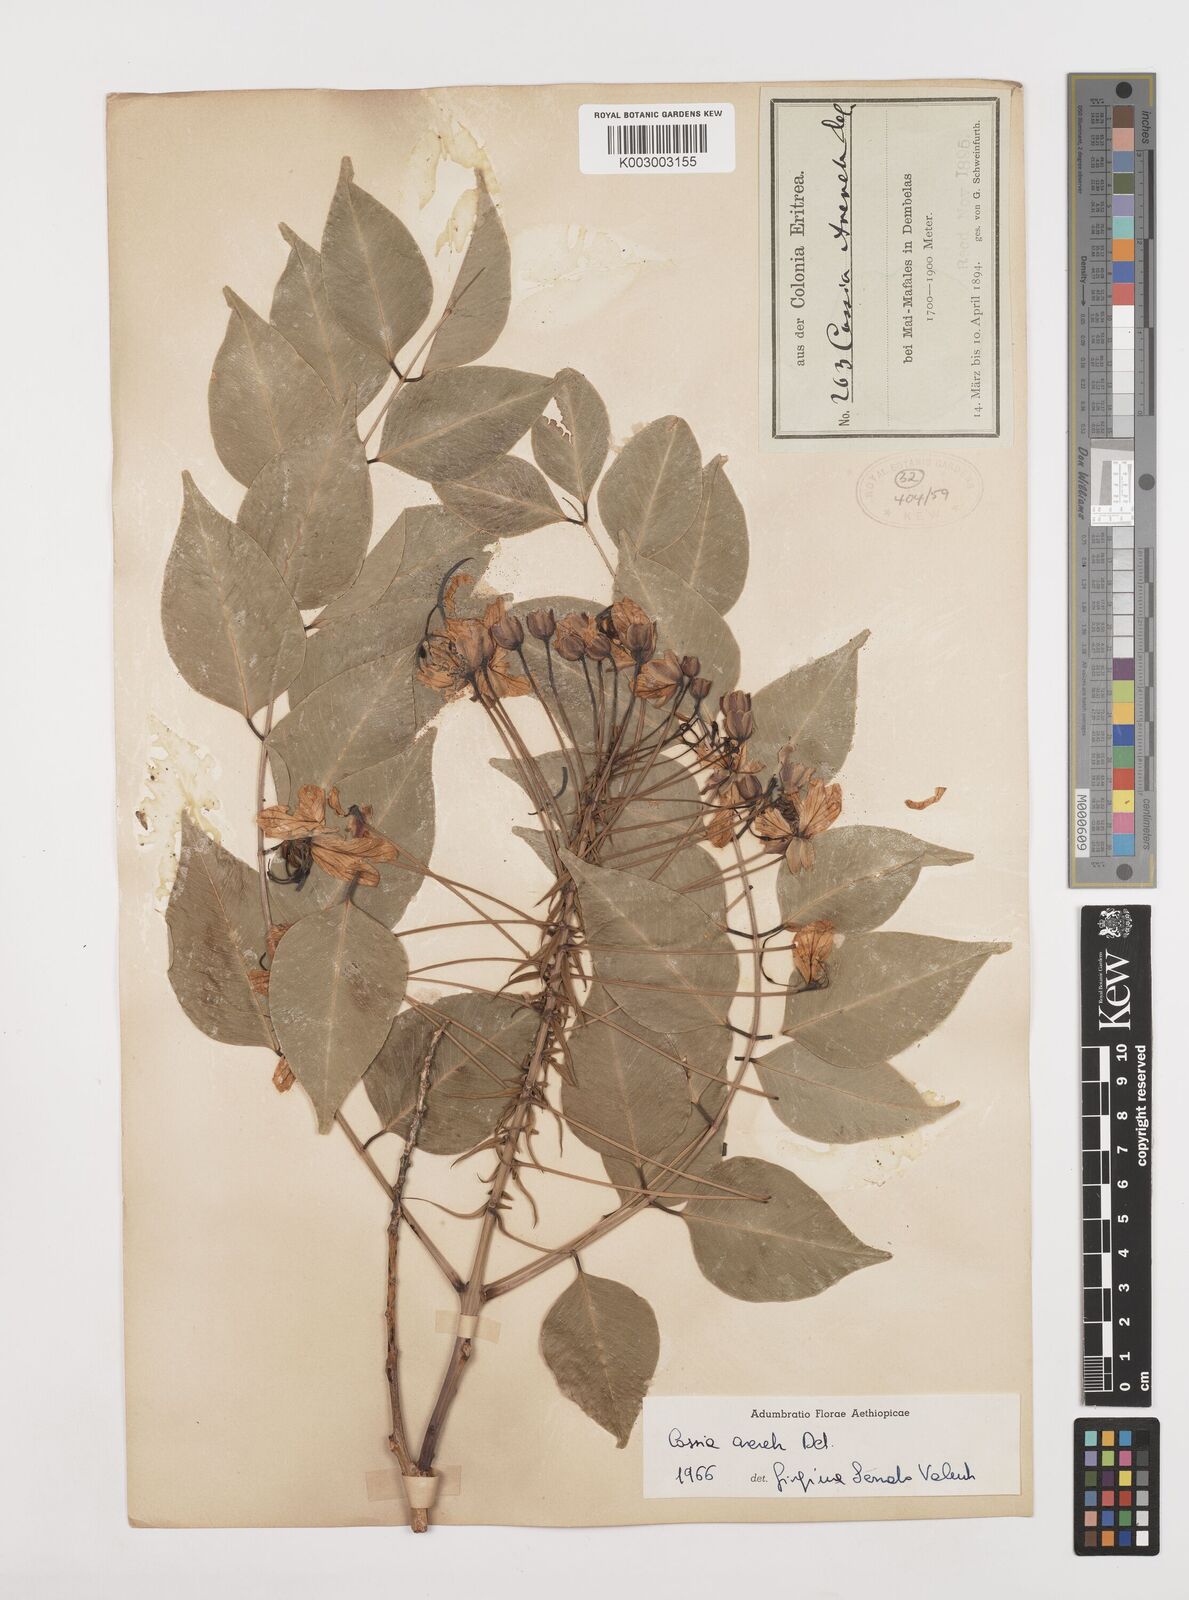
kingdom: Plantae
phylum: Tracheophyta
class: Magnoliopsida
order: Fabales
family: Fabaceae
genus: Cassia
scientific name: Cassia arereh
